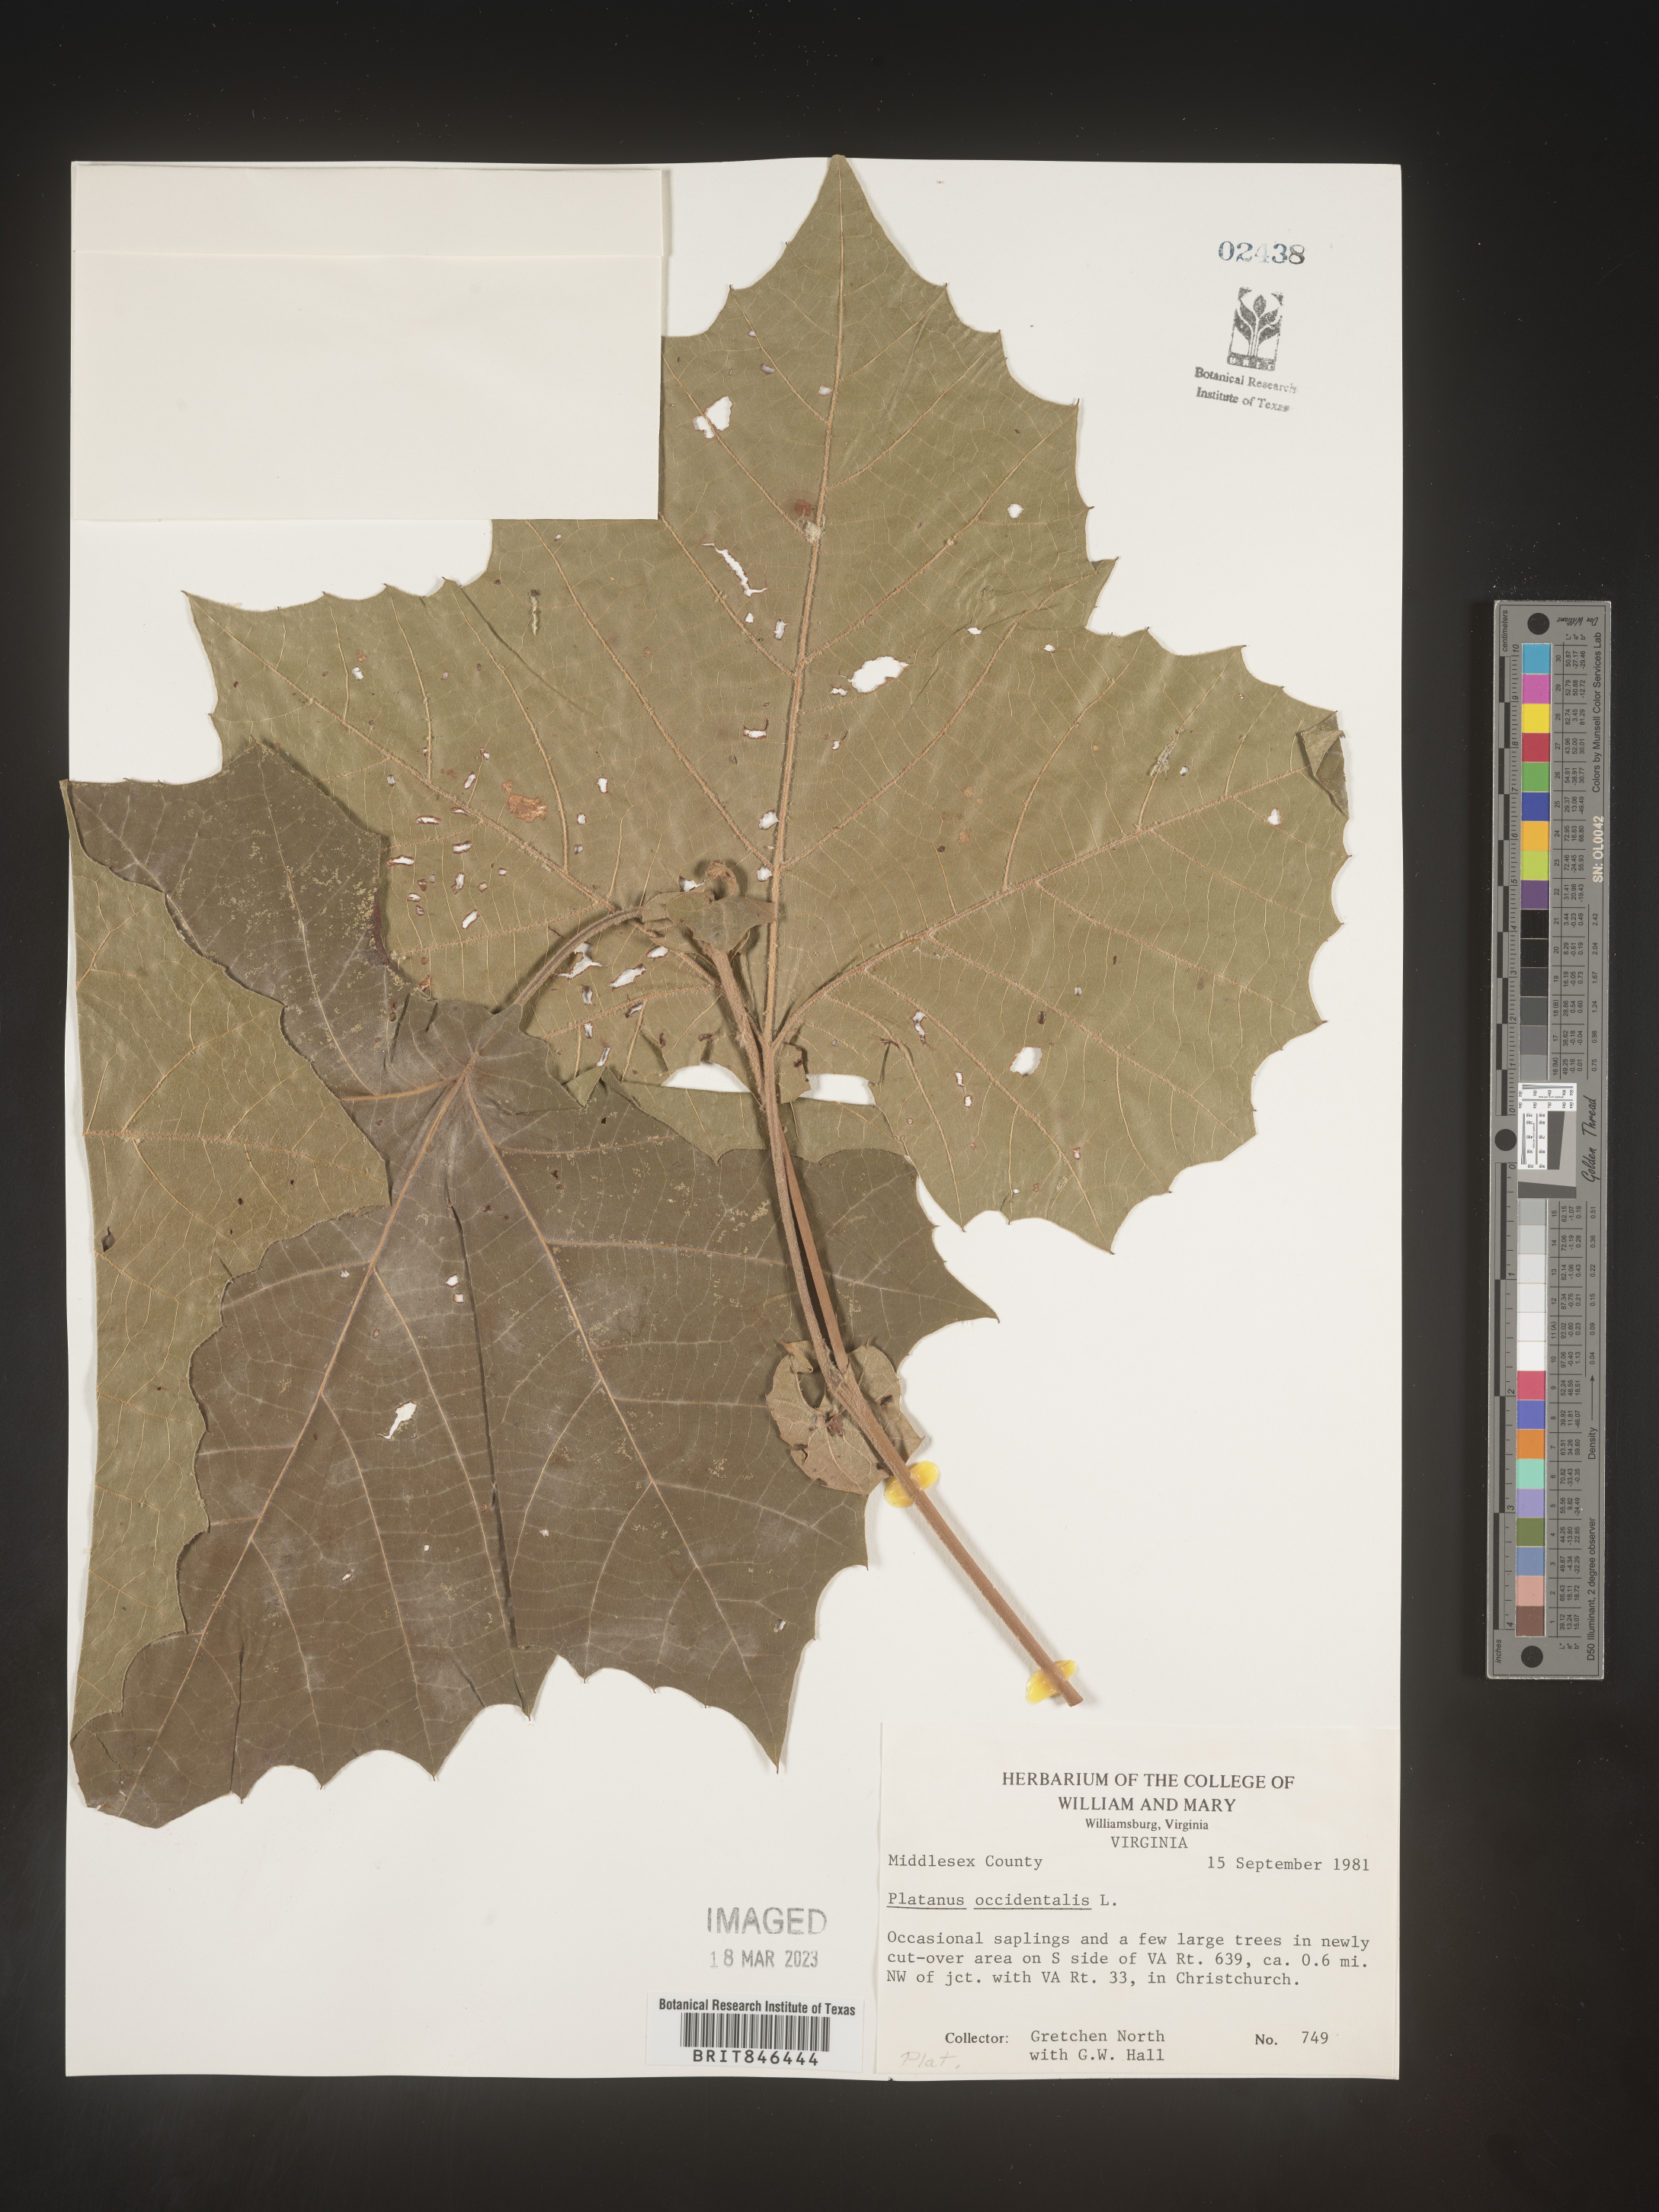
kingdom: Plantae
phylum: Tracheophyta
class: Magnoliopsida
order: Proteales
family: Platanaceae
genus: Platanus
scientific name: Platanus occidentalis
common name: American sycamore
